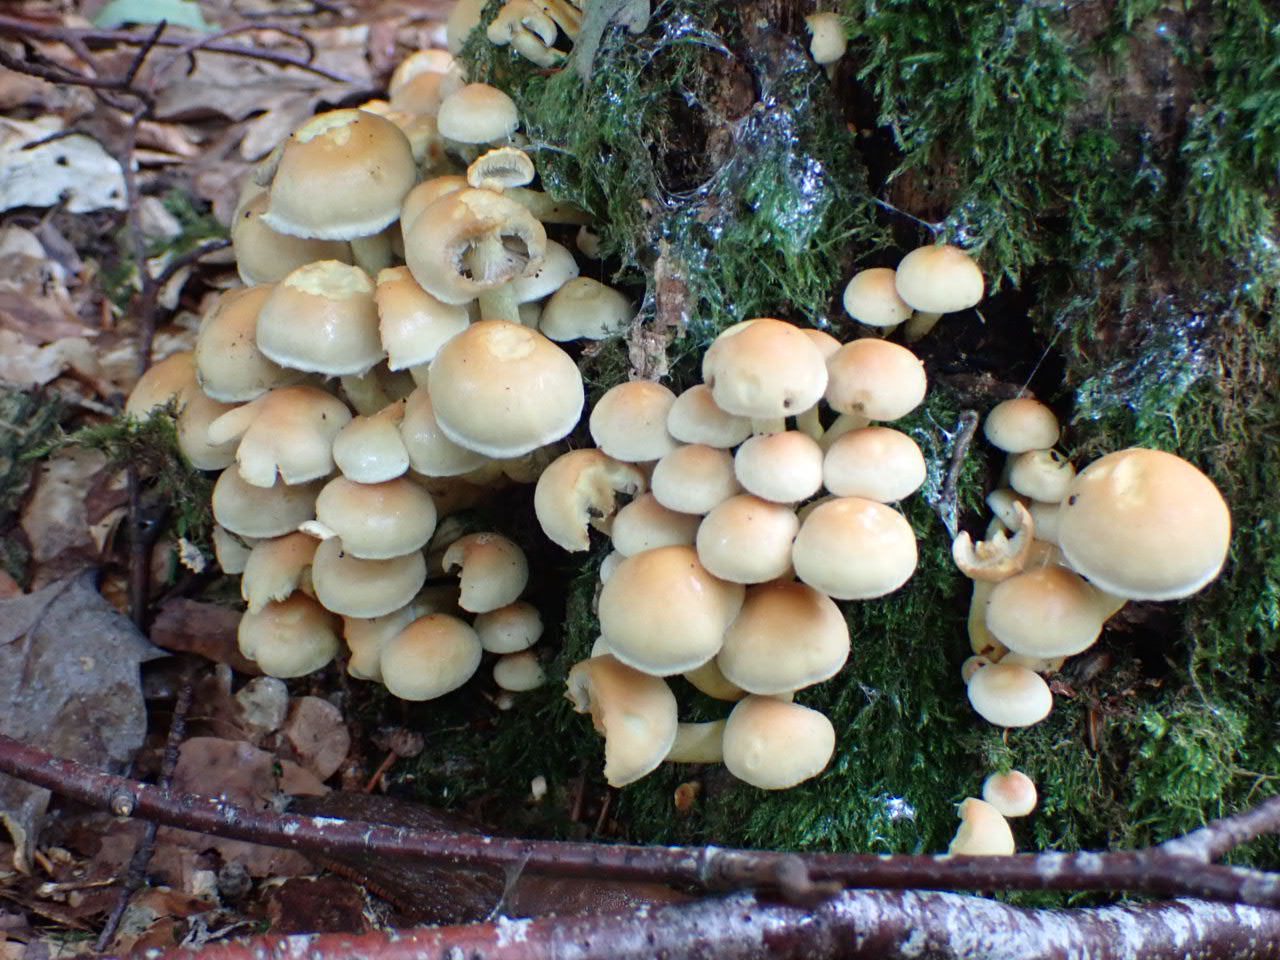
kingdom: Fungi
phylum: Basidiomycota
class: Agaricomycetes
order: Agaricales
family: Strophariaceae
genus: Hypholoma
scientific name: Hypholoma fasciculare
